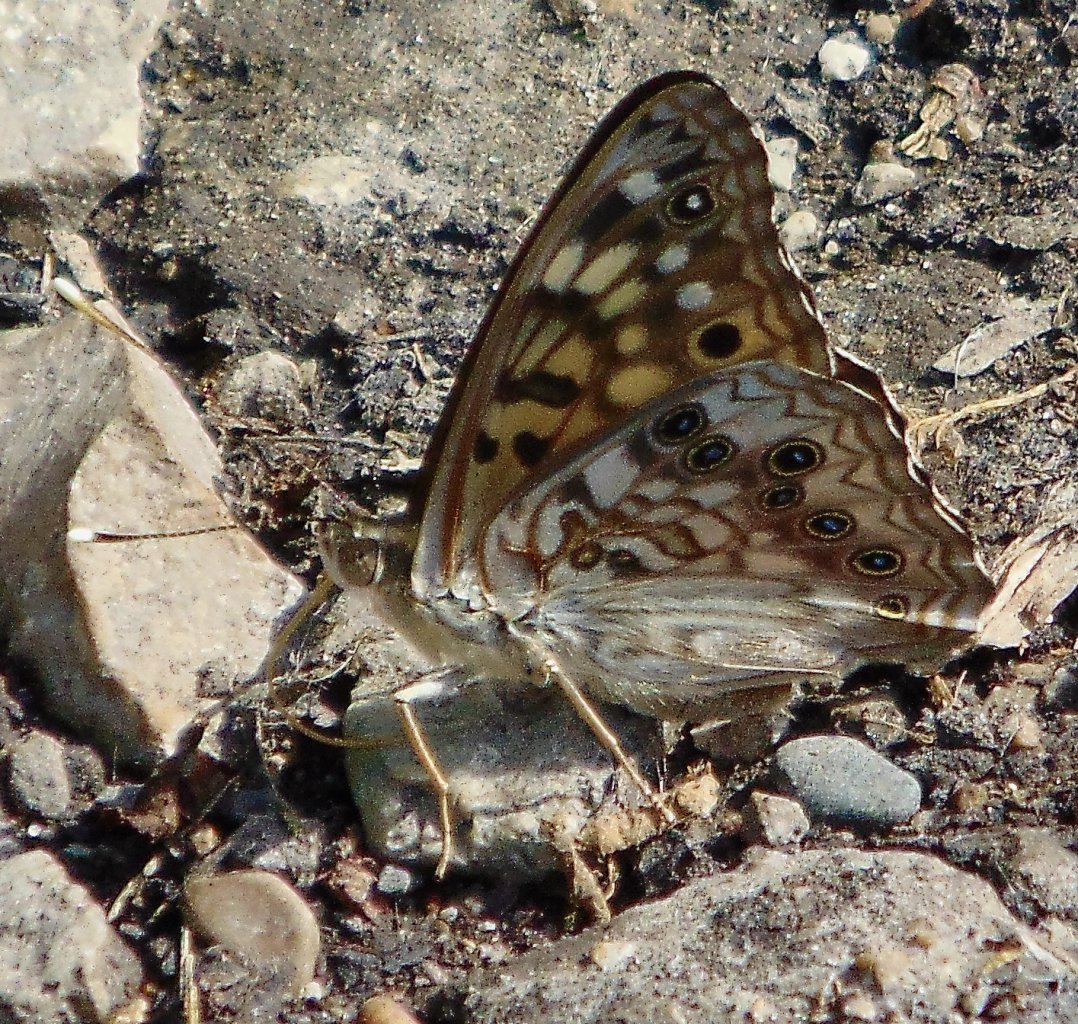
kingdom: Animalia
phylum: Arthropoda
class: Insecta
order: Lepidoptera
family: Nymphalidae
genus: Asterocampa
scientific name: Asterocampa celtis
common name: Hackberry Emperor
